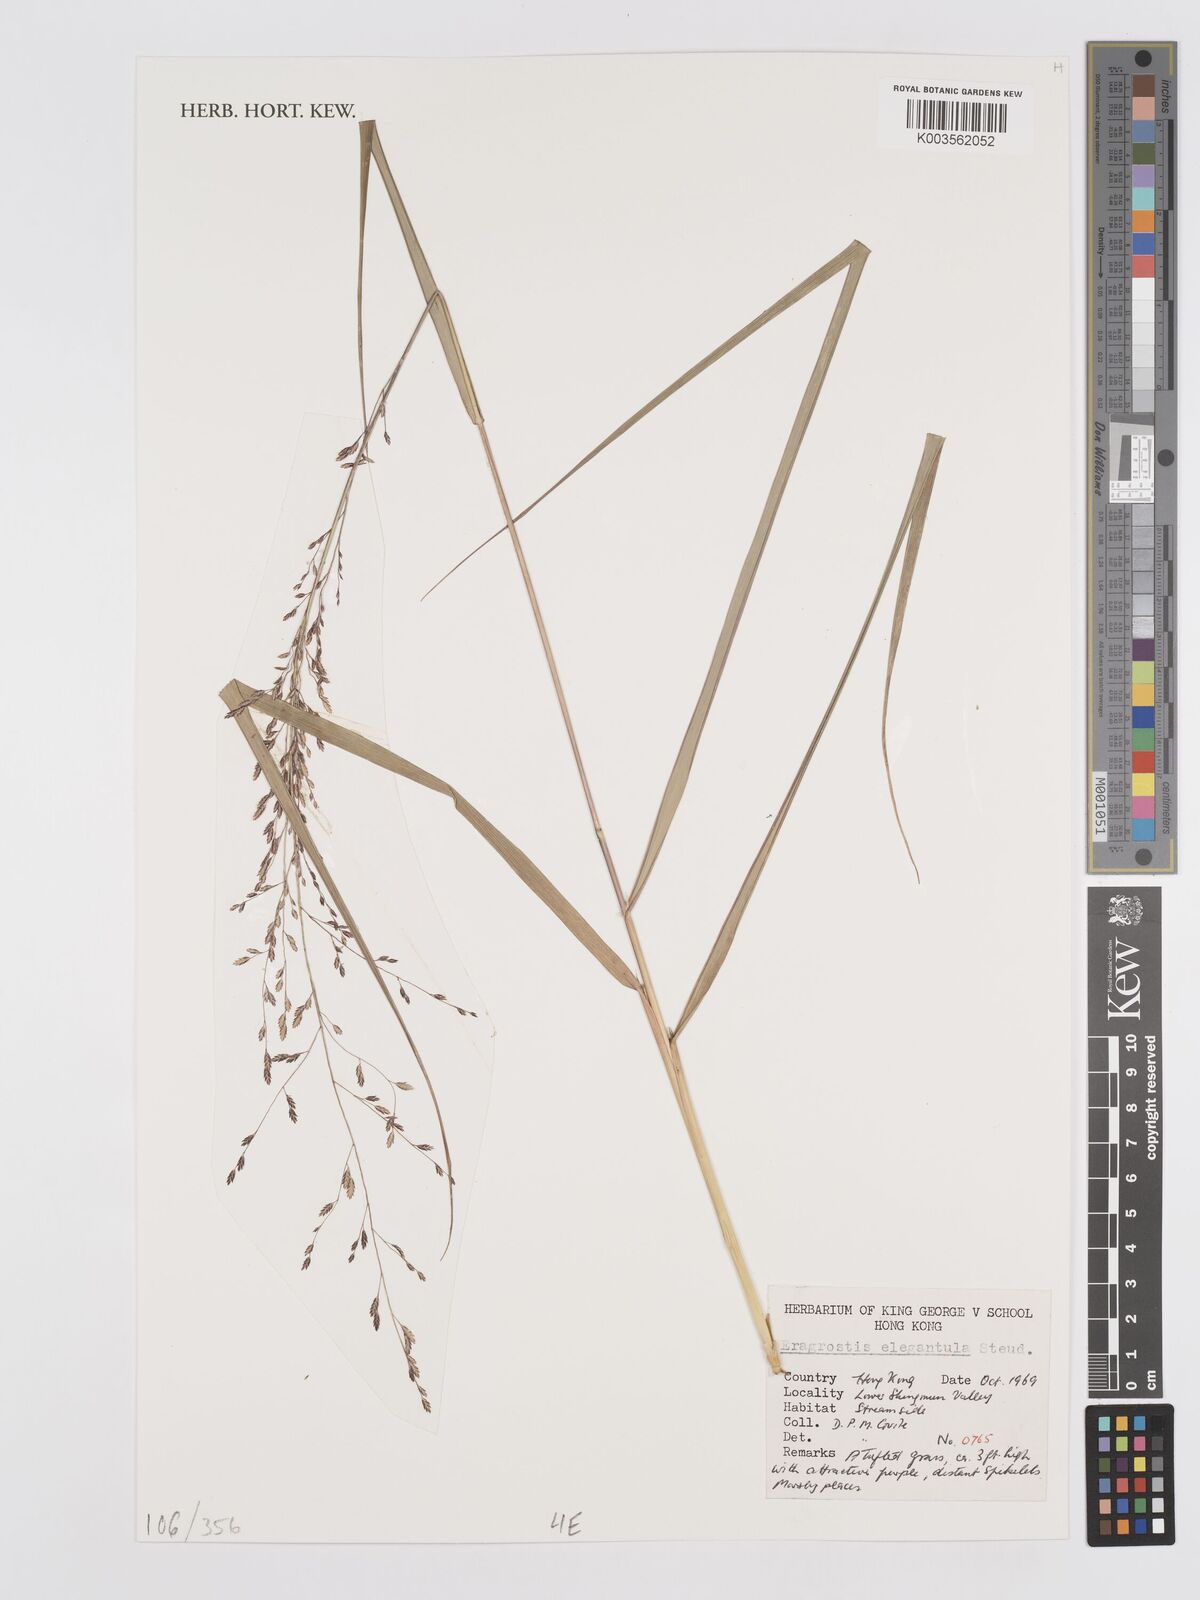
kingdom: Plantae
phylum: Tracheophyta
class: Liliopsida
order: Poales
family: Poaceae
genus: Eragrostis
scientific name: Eragrostis gangetica
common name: Slimflower lovegrass
